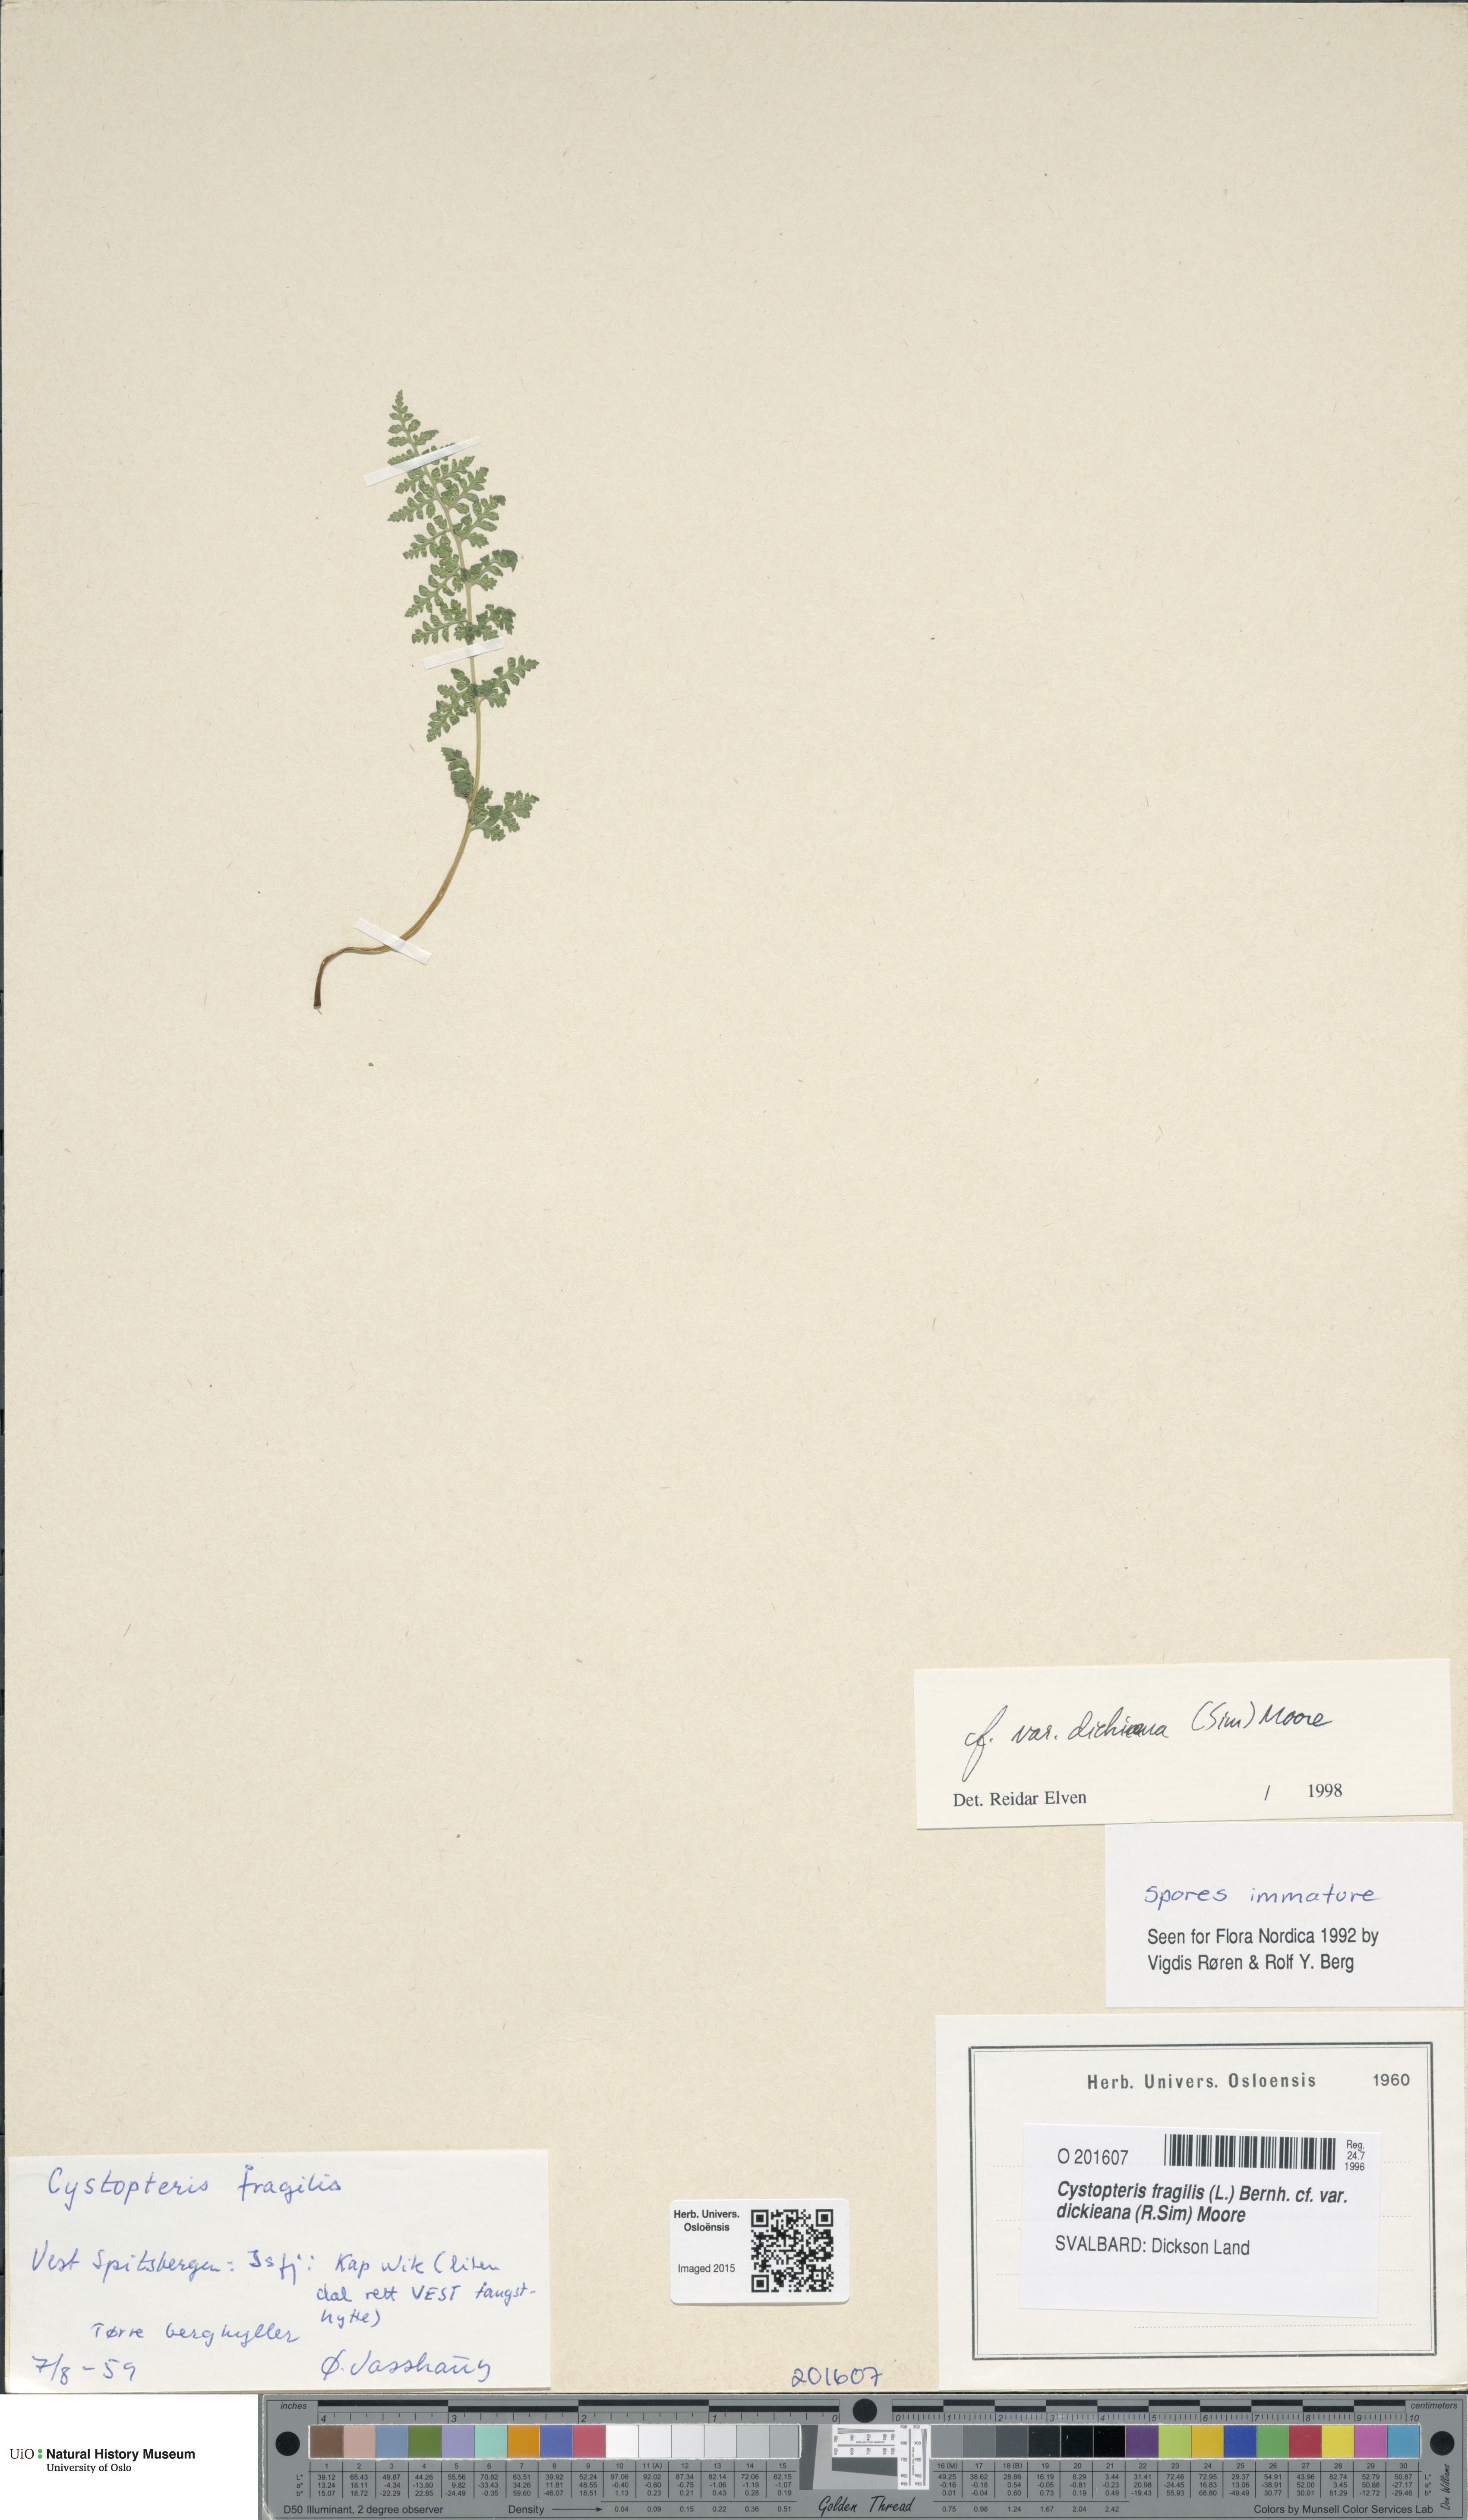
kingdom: Plantae
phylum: Tracheophyta
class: Polypodiopsida
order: Polypodiales
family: Cystopteridaceae
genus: Cystopteris
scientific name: Cystopteris dickieana
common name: Dickie's bladder-fern
